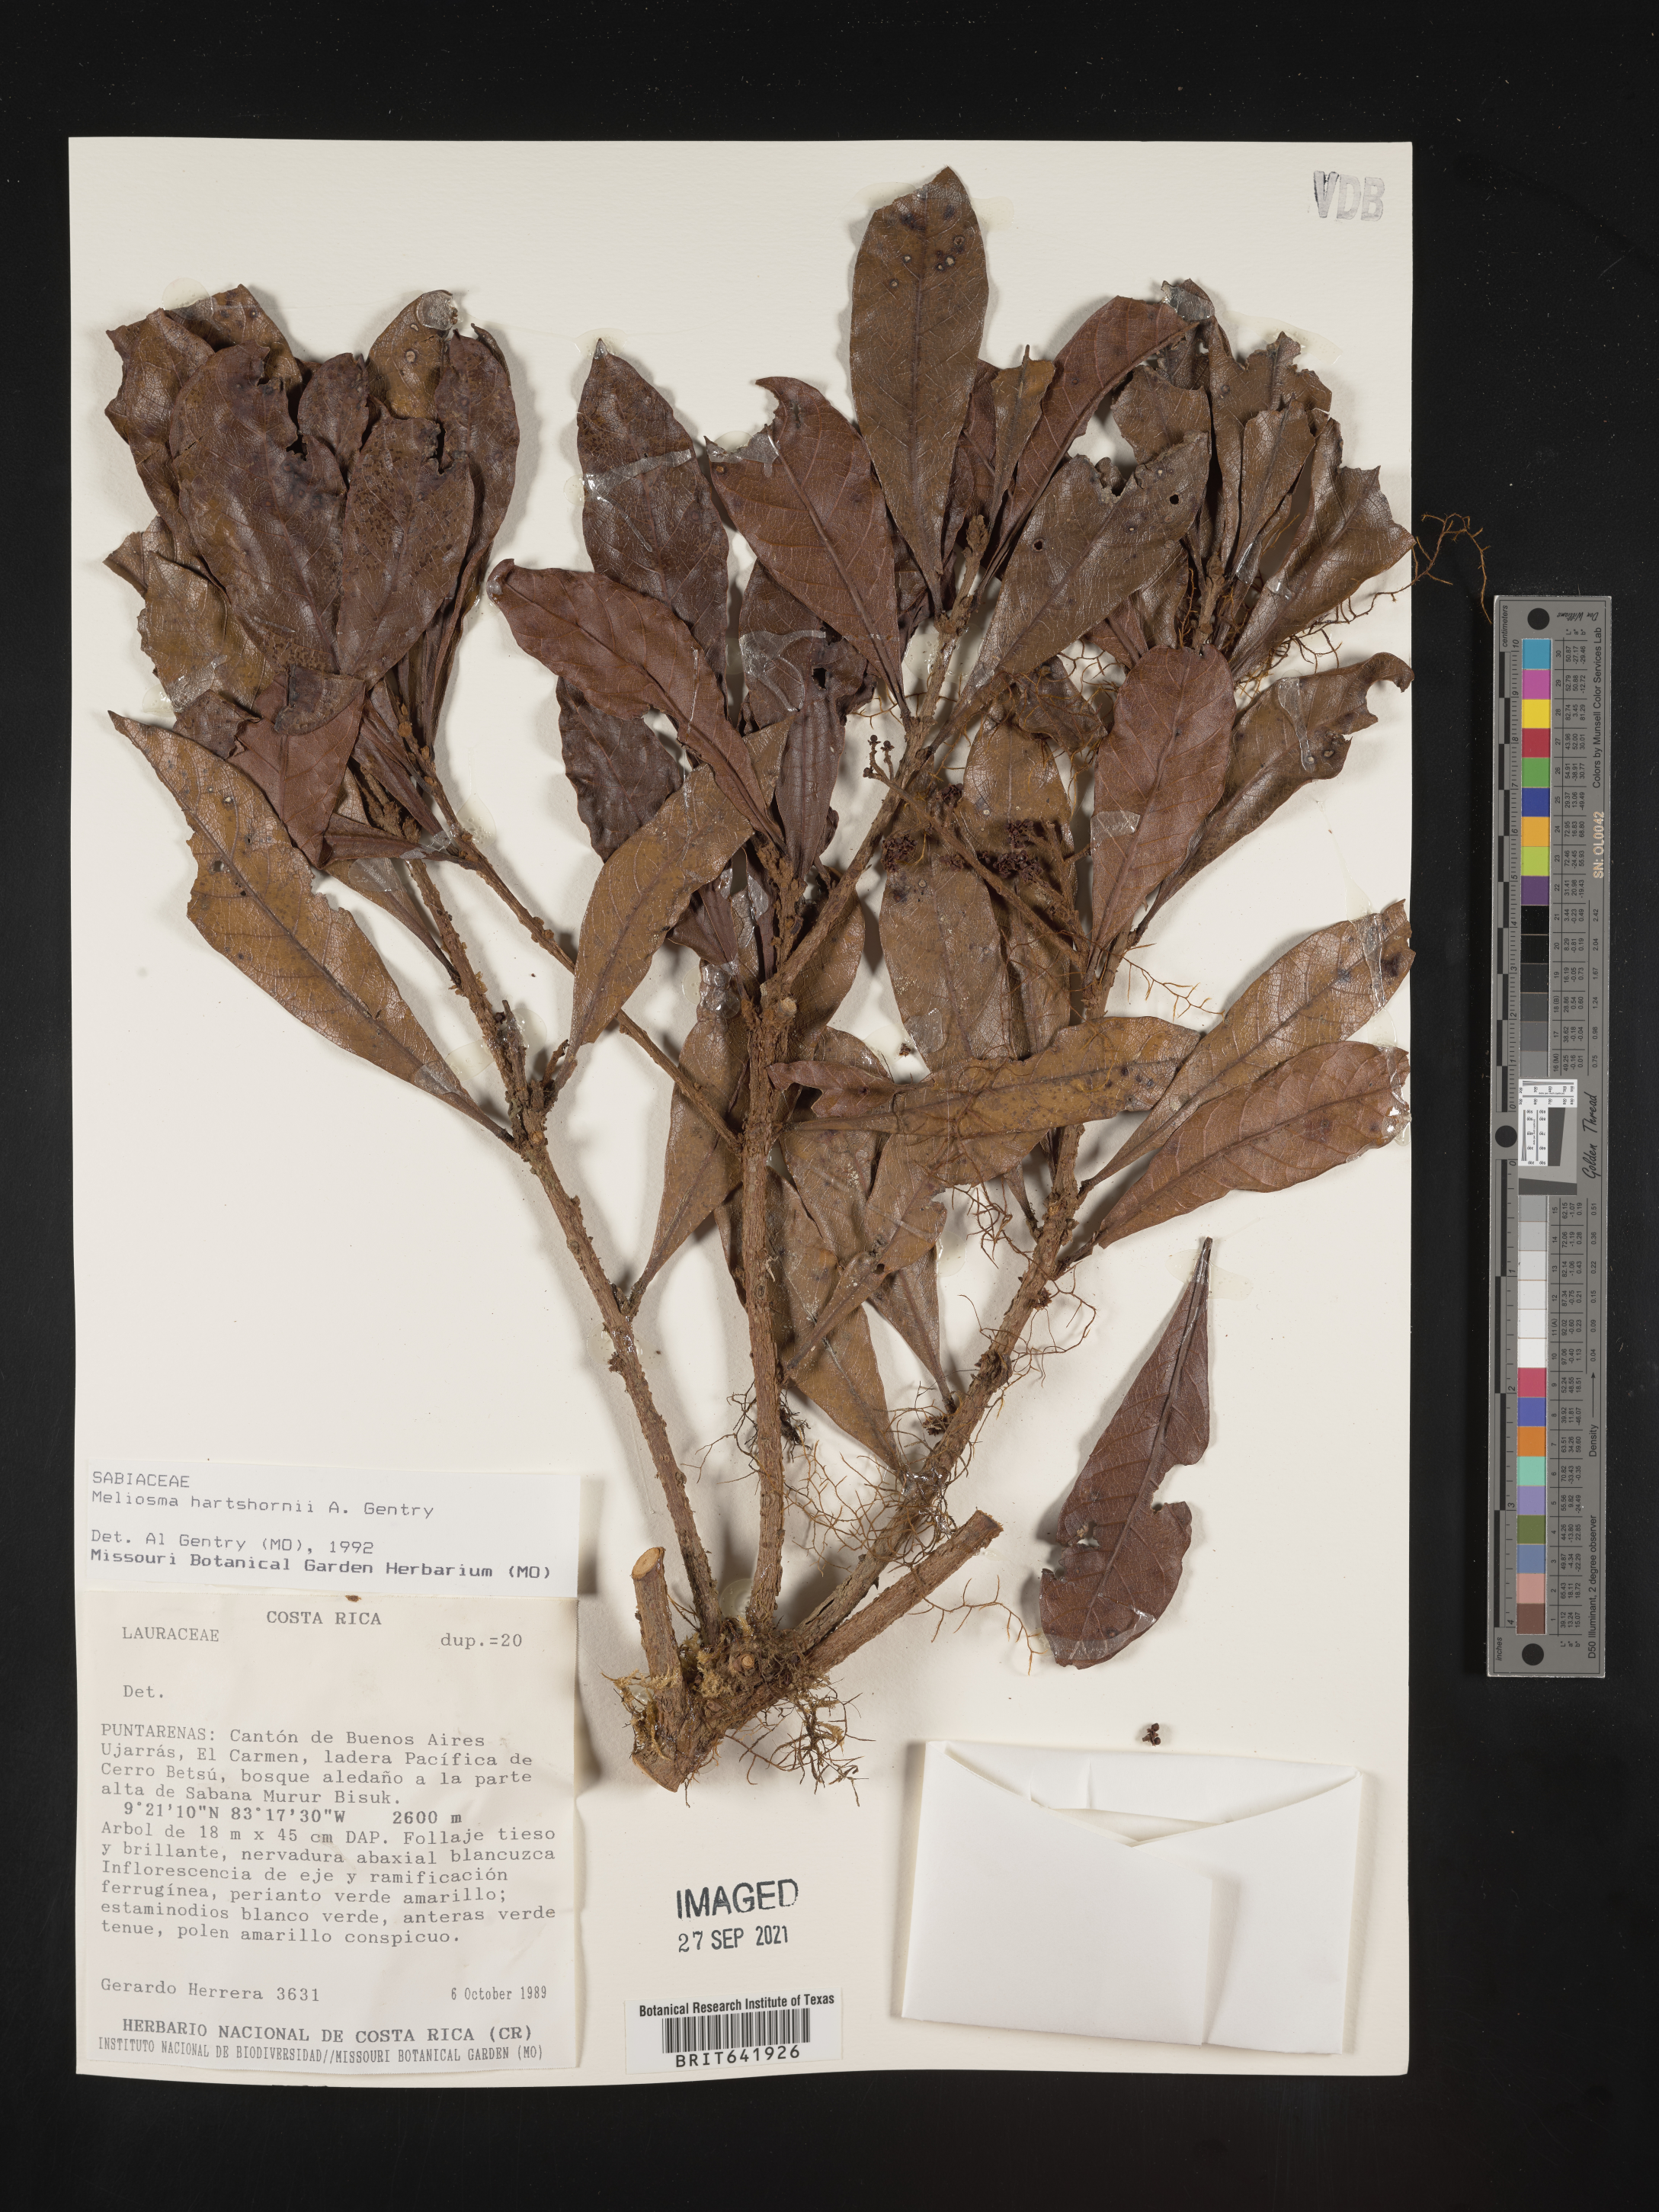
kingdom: Plantae
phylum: Tracheophyta
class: Magnoliopsida
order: Proteales
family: Sabiaceae
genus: Meliosma
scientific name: Meliosma
